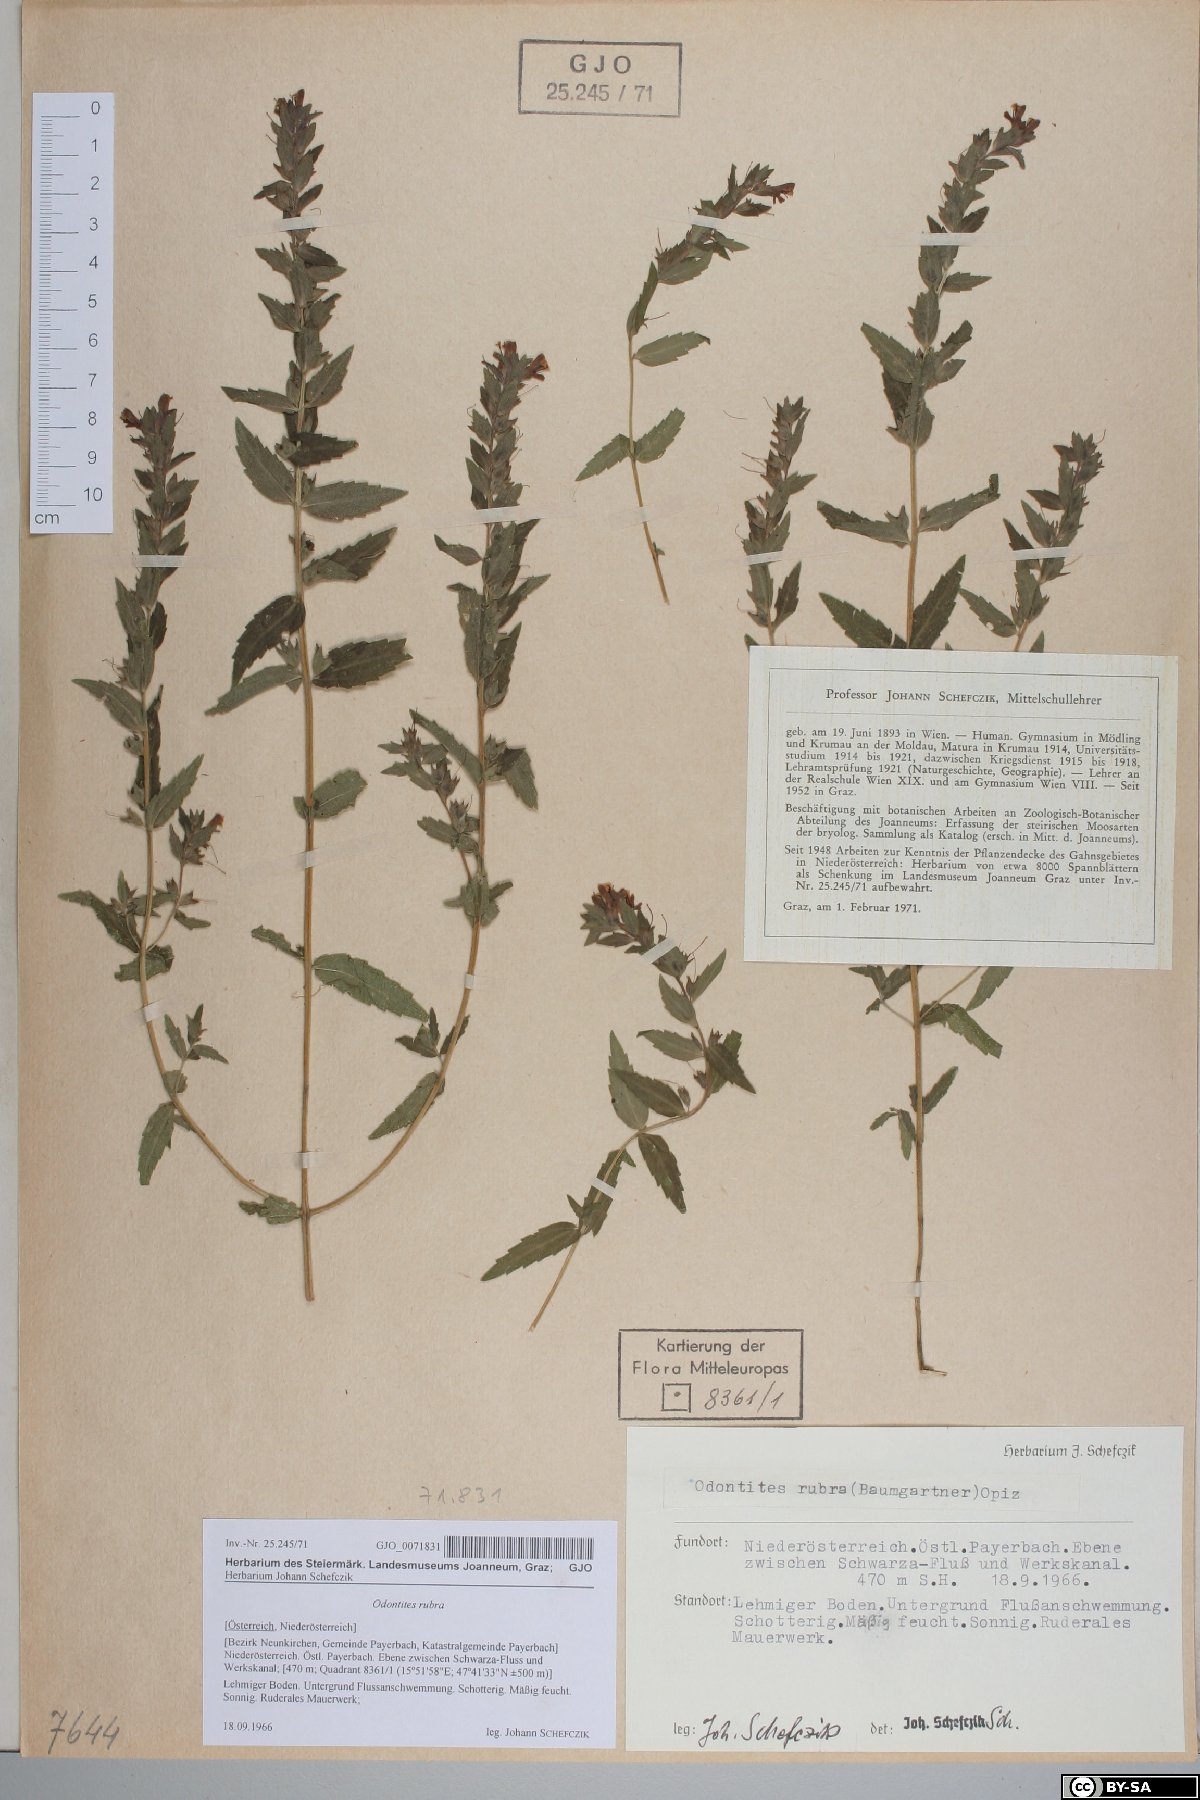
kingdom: Plantae
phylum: Tracheophyta
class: Magnoliopsida
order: Lamiales
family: Orobanchaceae
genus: Odontites
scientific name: Odontites vulgaris
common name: Broomrape
